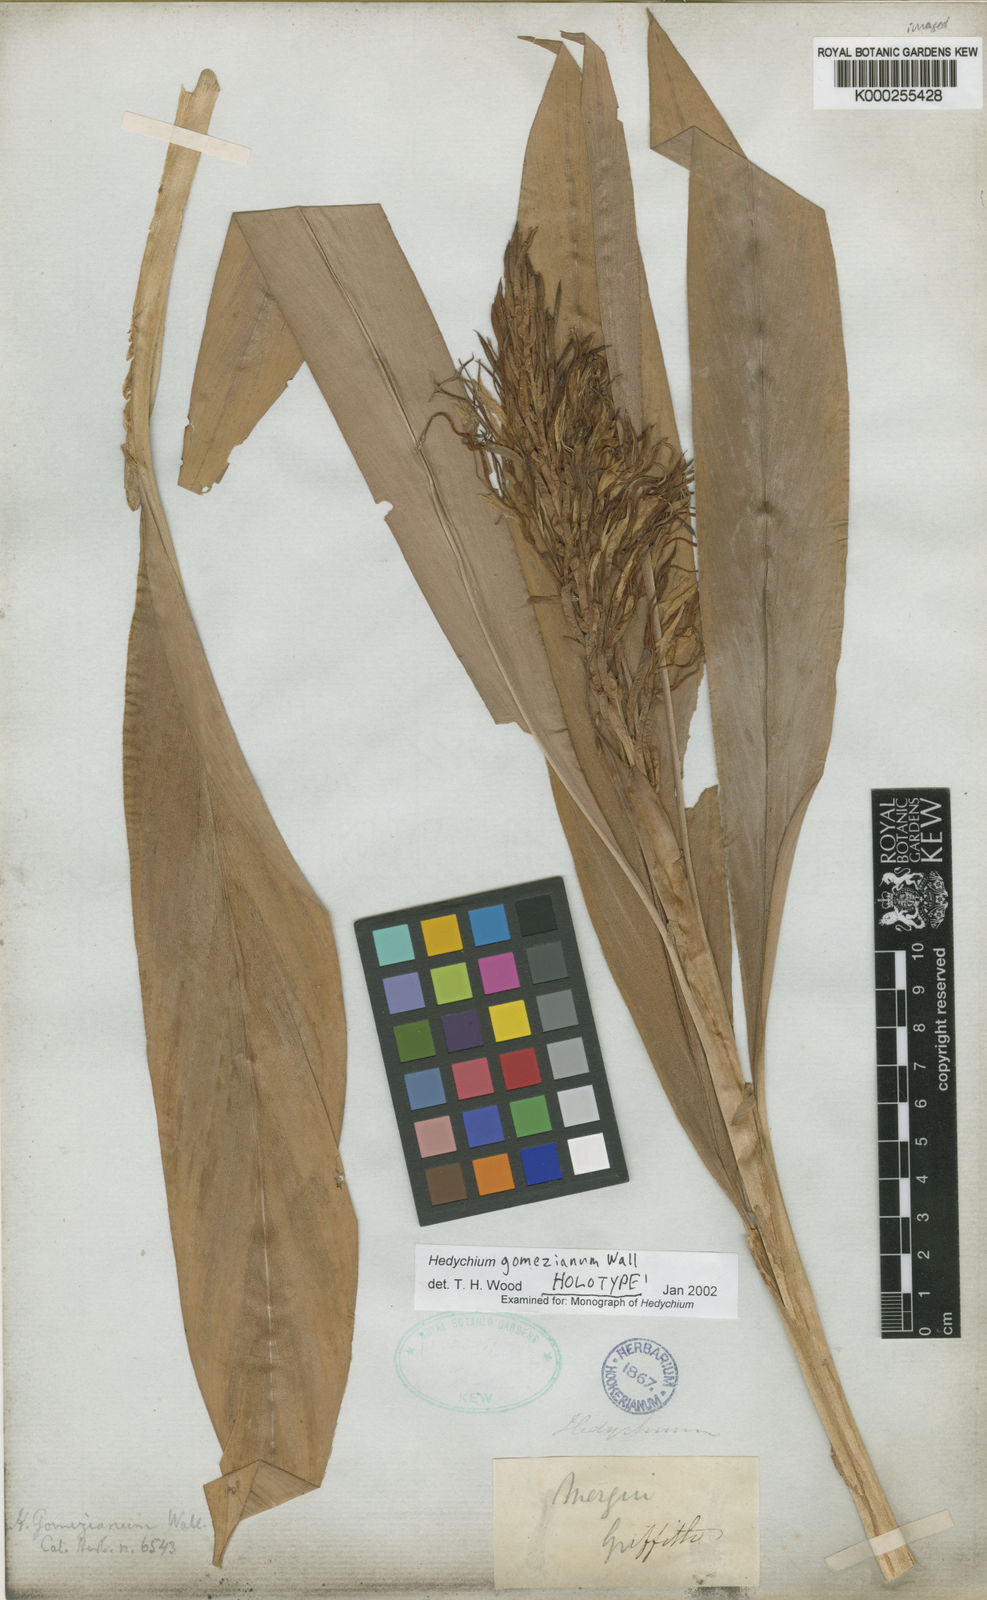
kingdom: Plantae
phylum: Tracheophyta
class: Liliopsida
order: Zingiberales
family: Zingiberaceae
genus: Hedychium
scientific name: Hedychium gomezianum
